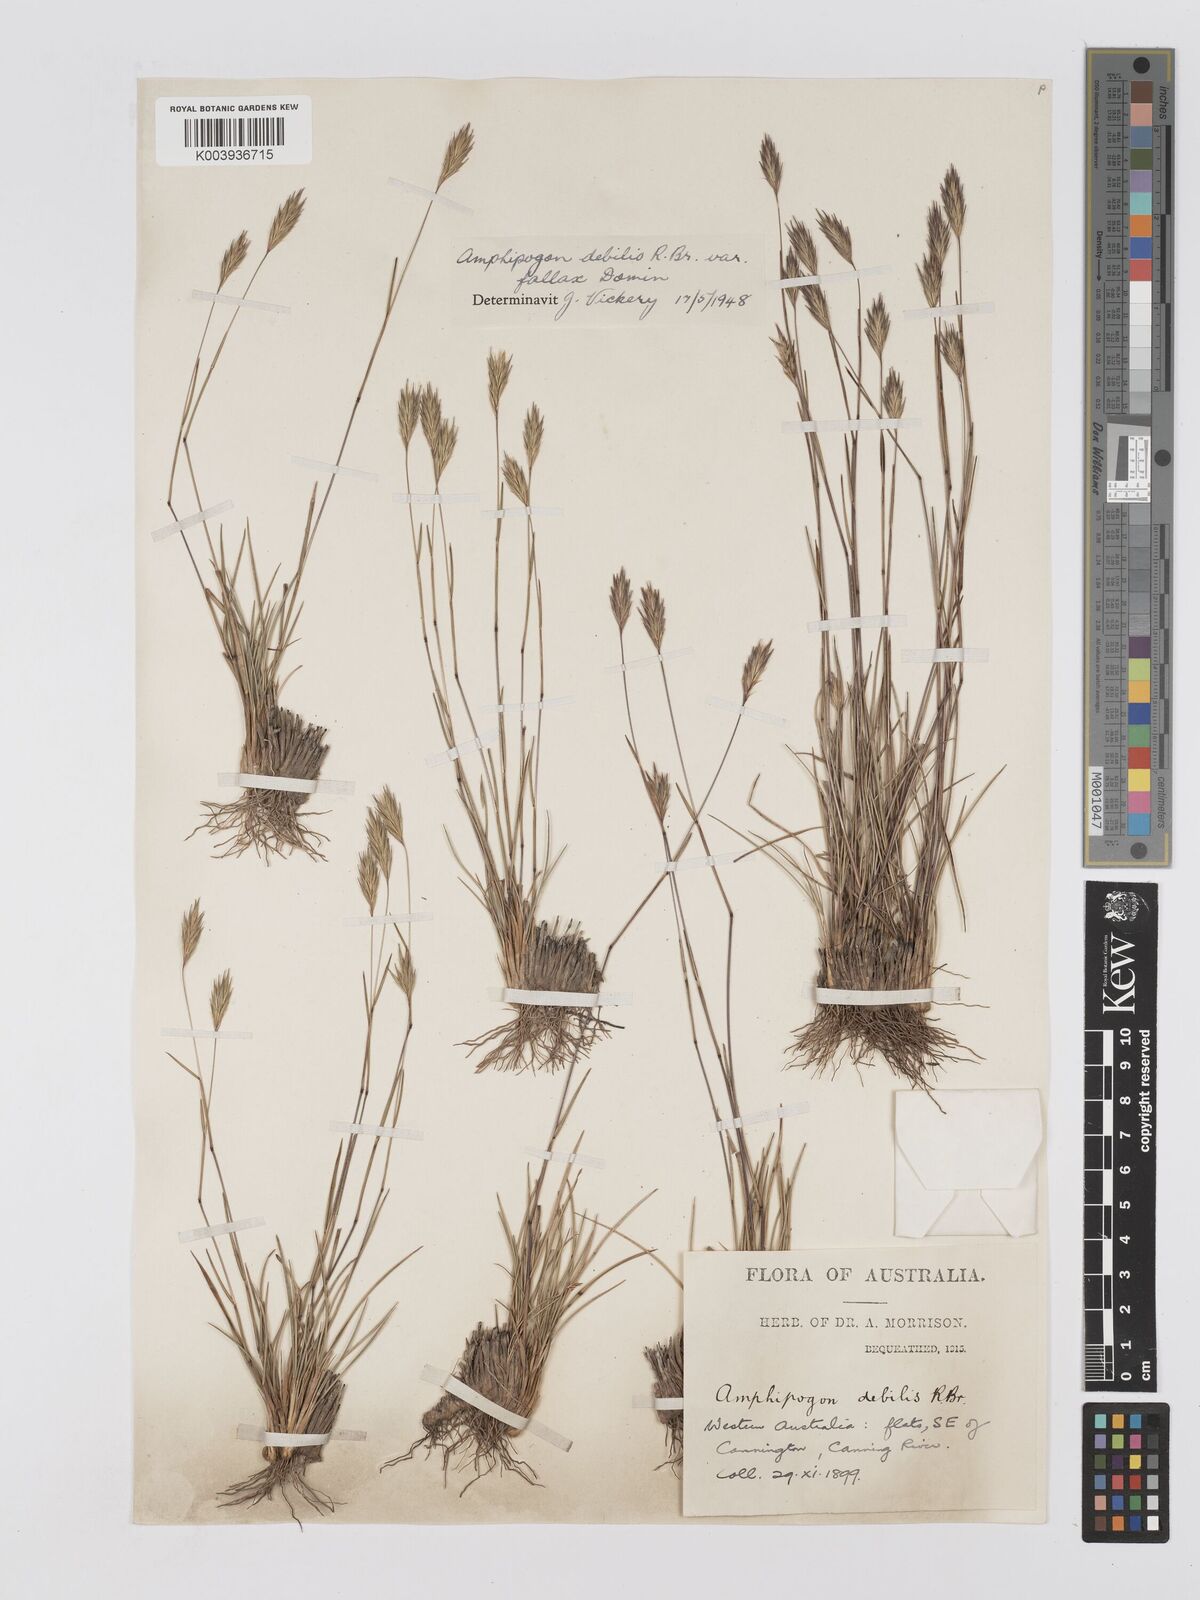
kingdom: Plantae
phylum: Tracheophyta
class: Liliopsida
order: Poales
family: Poaceae
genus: Amphipogon
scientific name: Amphipogon debilis
